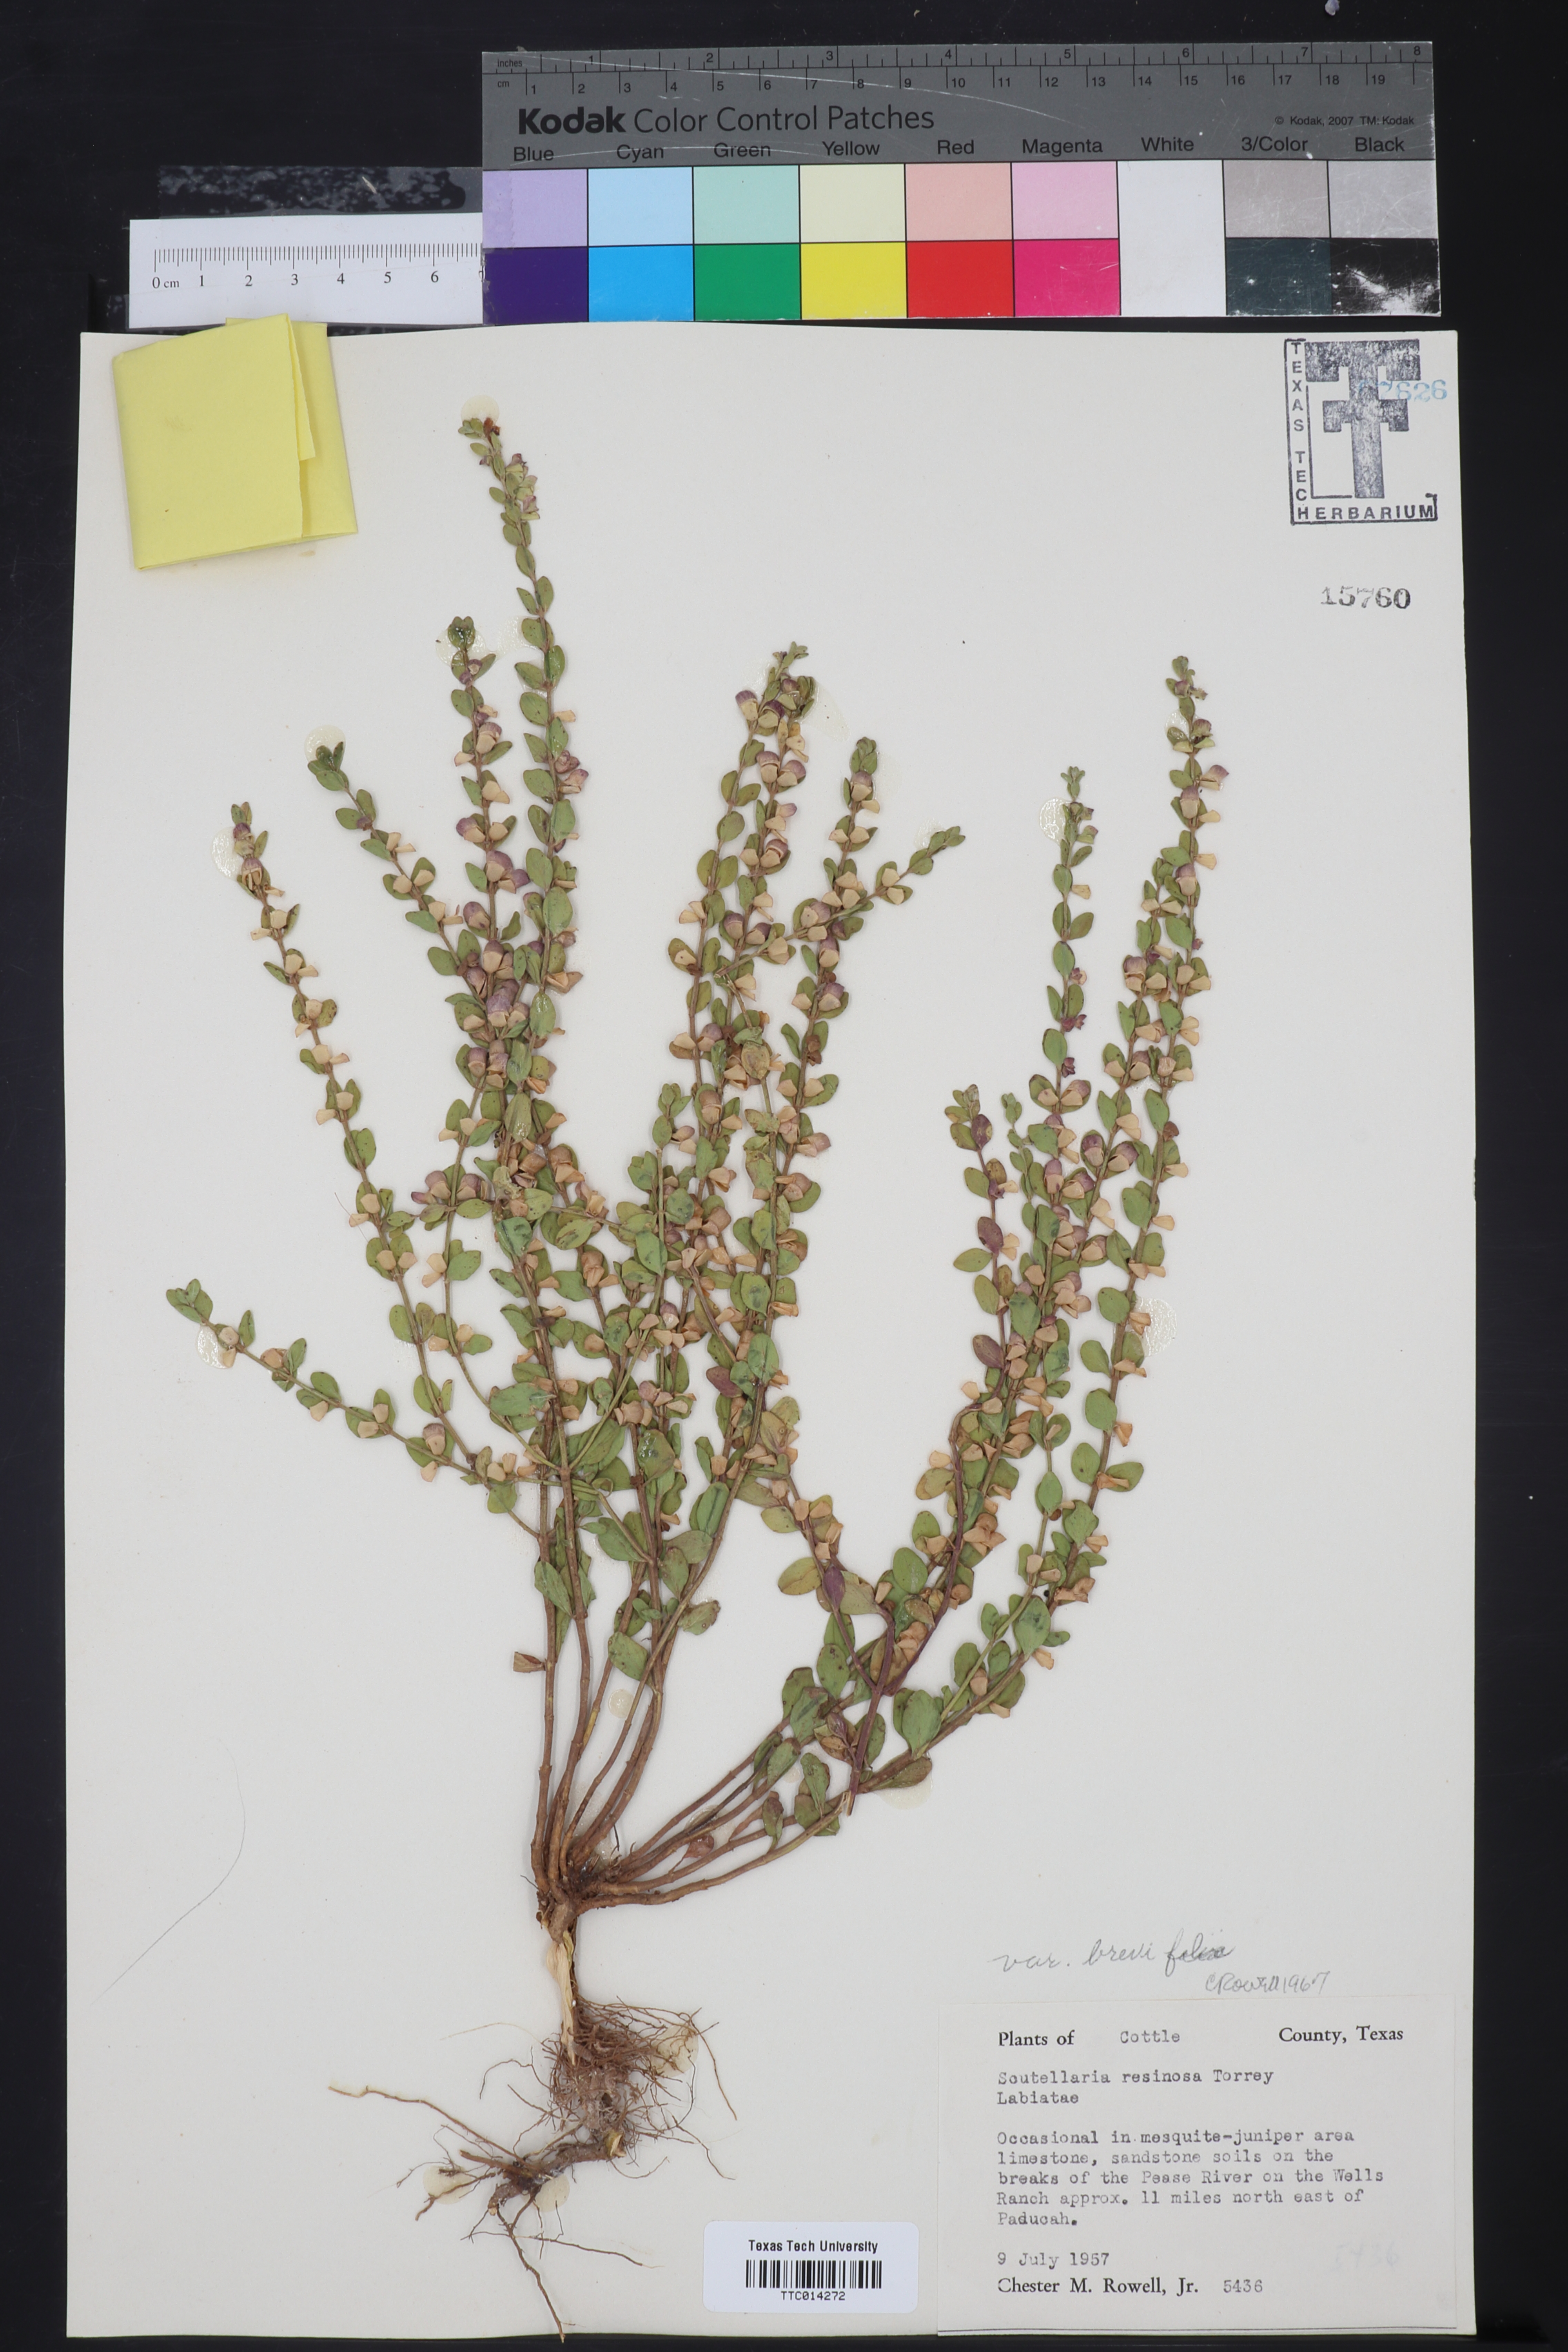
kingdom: Plantae
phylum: Tracheophyta
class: Magnoliopsida
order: Lamiales
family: Lamiaceae
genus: Scutellaria
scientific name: Scutellaria resinosa
